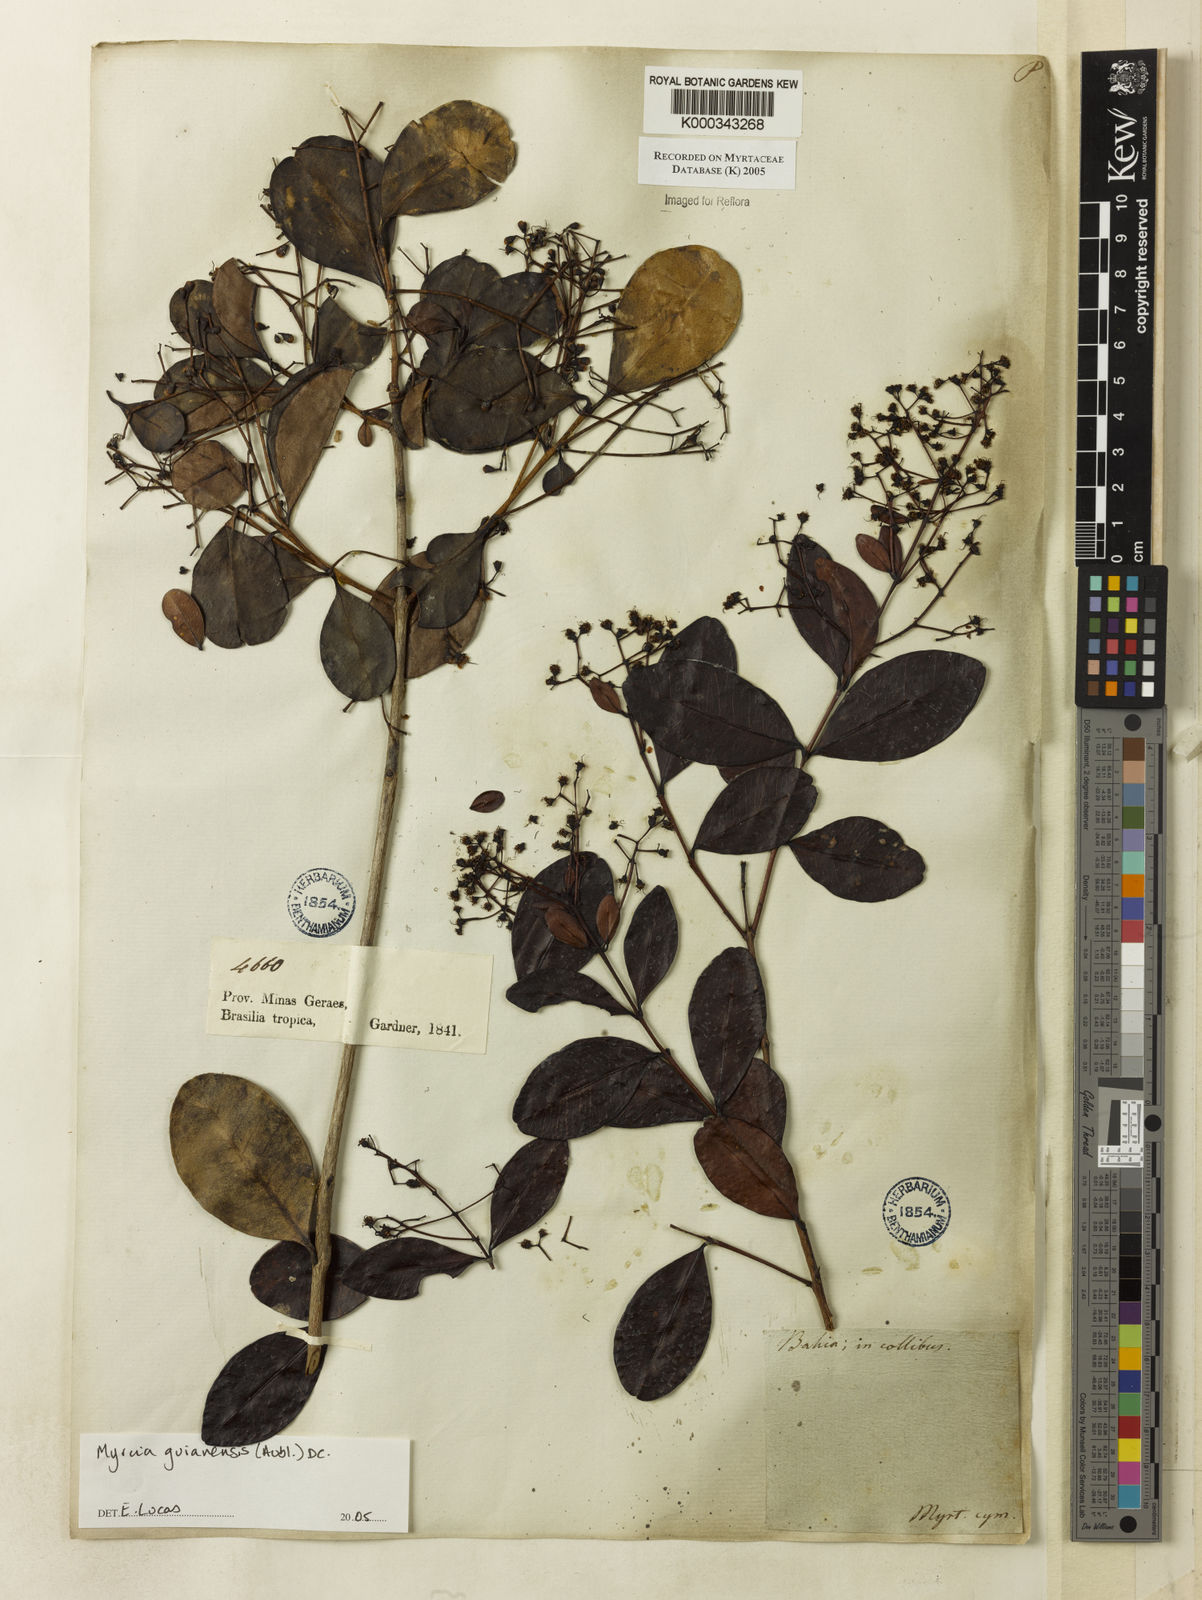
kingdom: Plantae
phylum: Tracheophyta
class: Magnoliopsida
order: Myrtales
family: Myrtaceae
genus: Myrcia
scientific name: Myrcia guianensis
